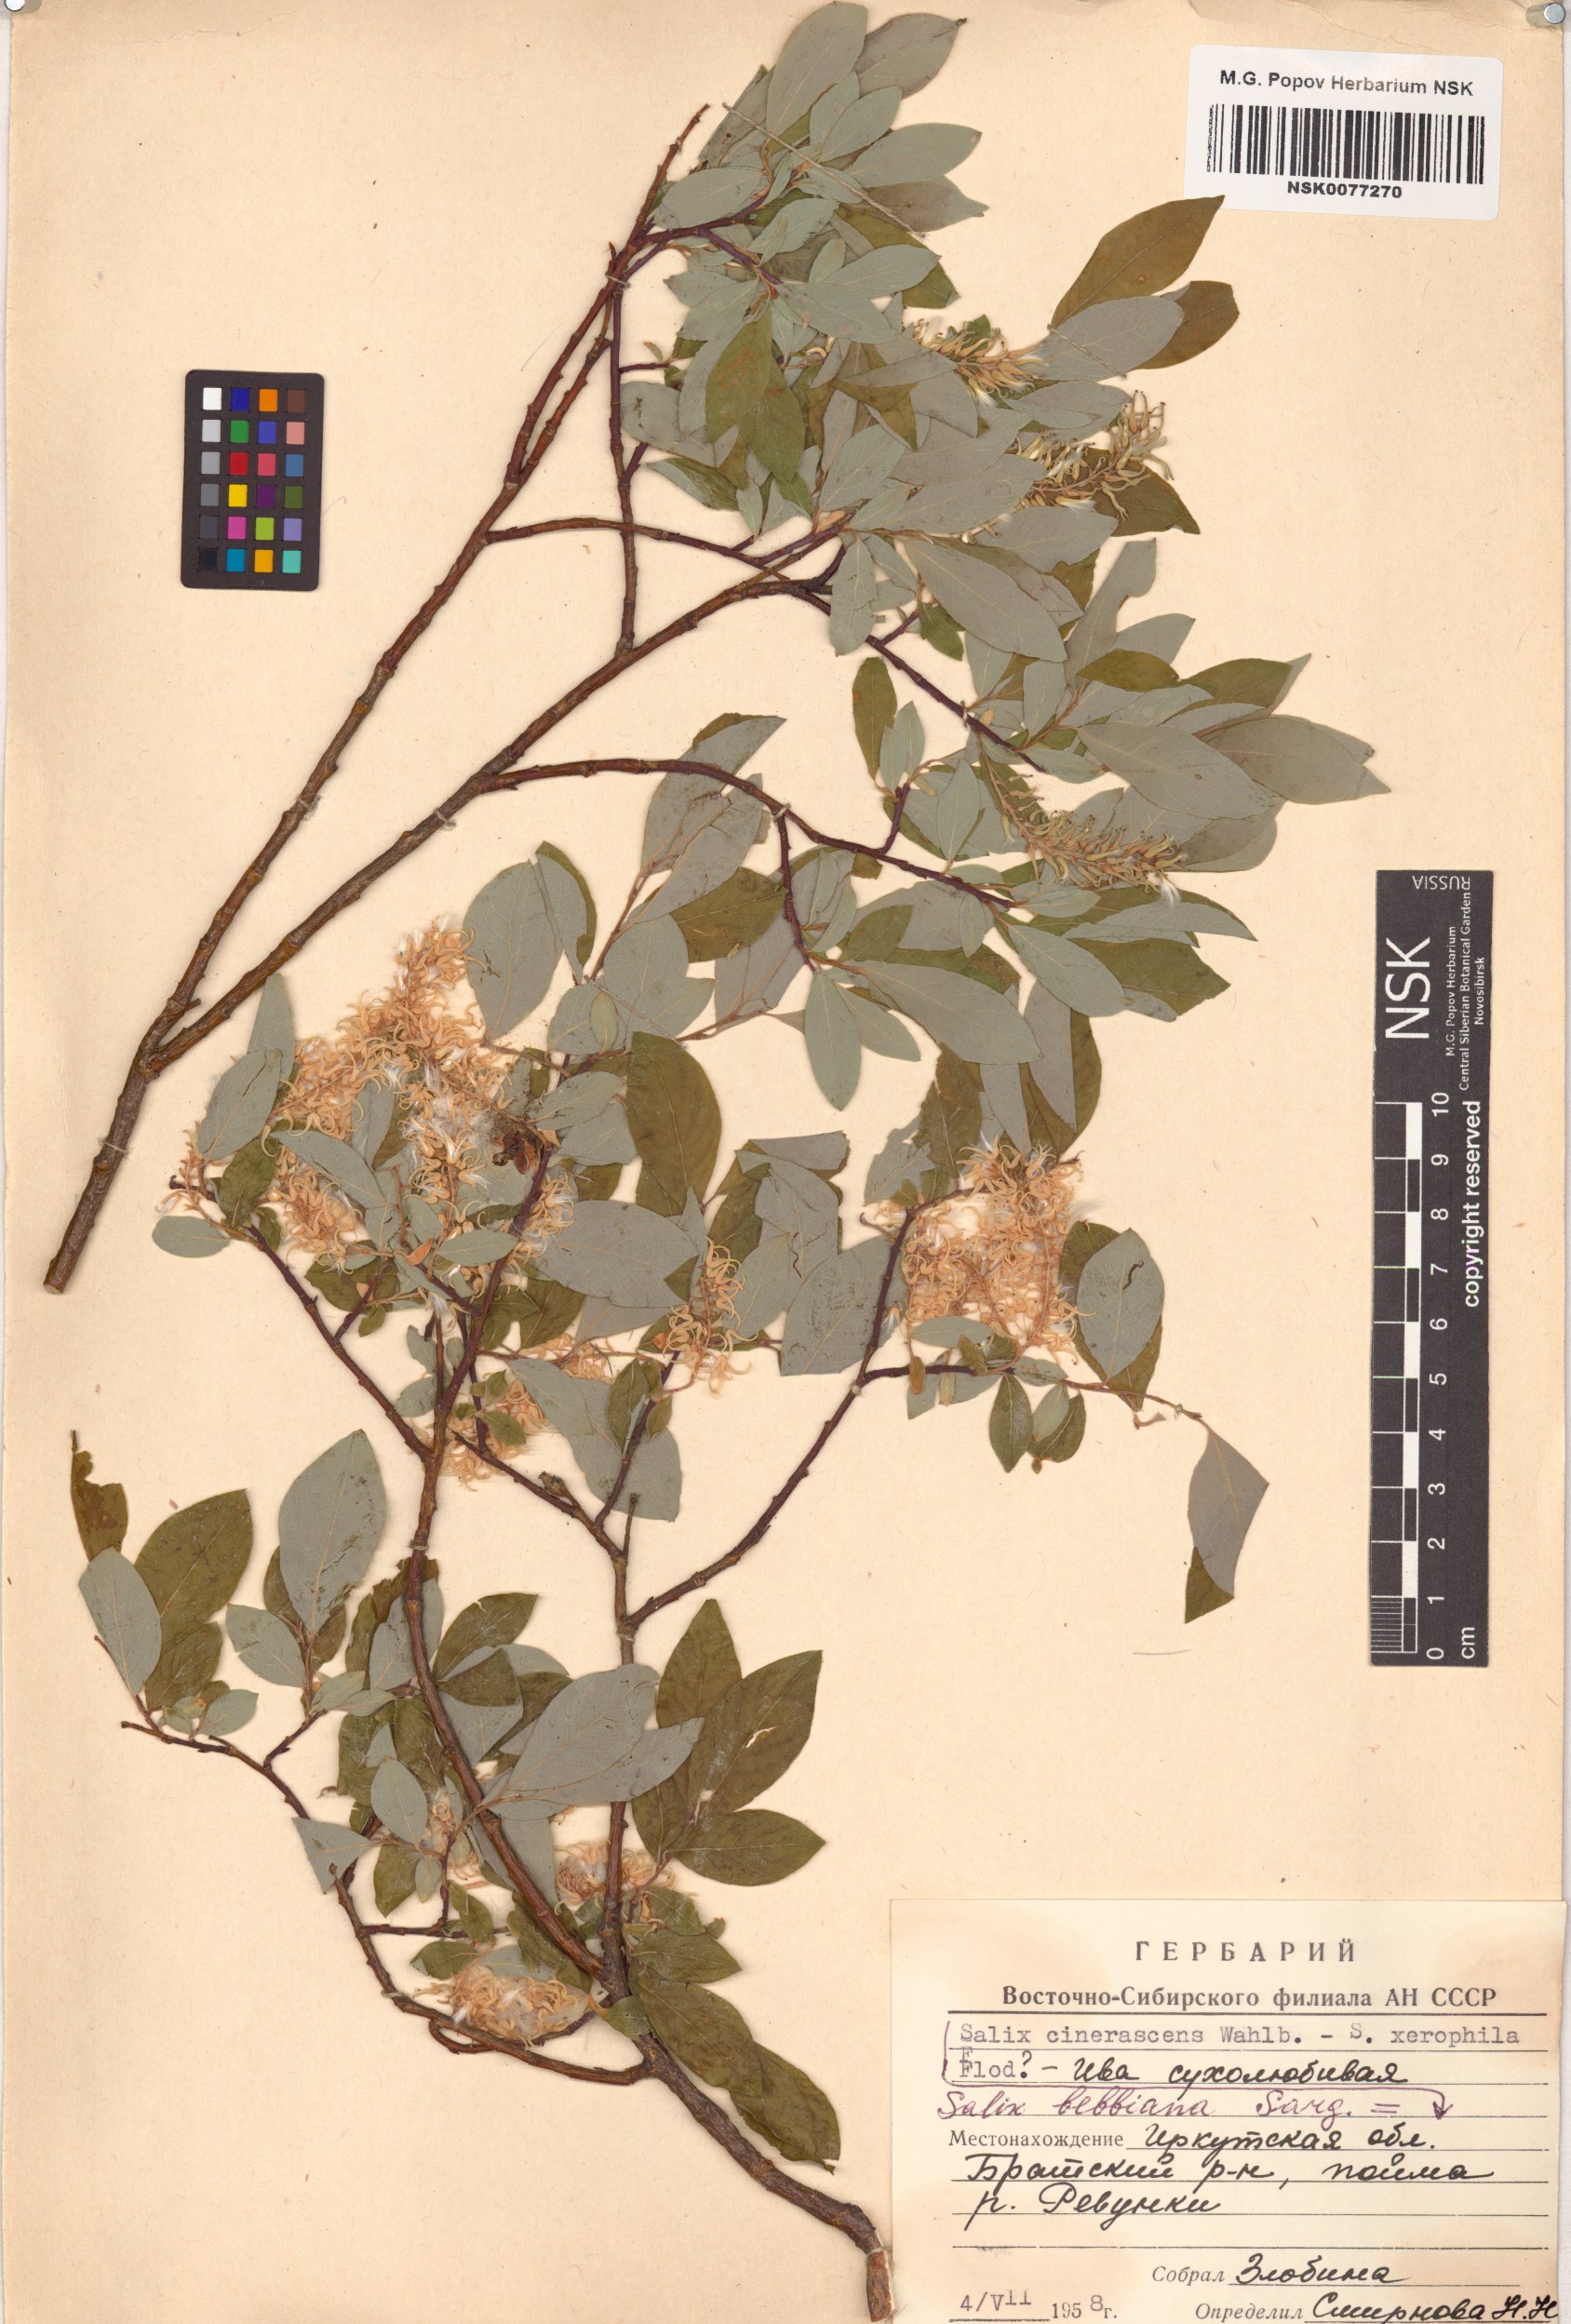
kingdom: Plantae
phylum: Tracheophyta
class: Magnoliopsida
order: Malpighiales
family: Salicaceae
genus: Salix
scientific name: Salix bebbiana
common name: Bebb's willow
